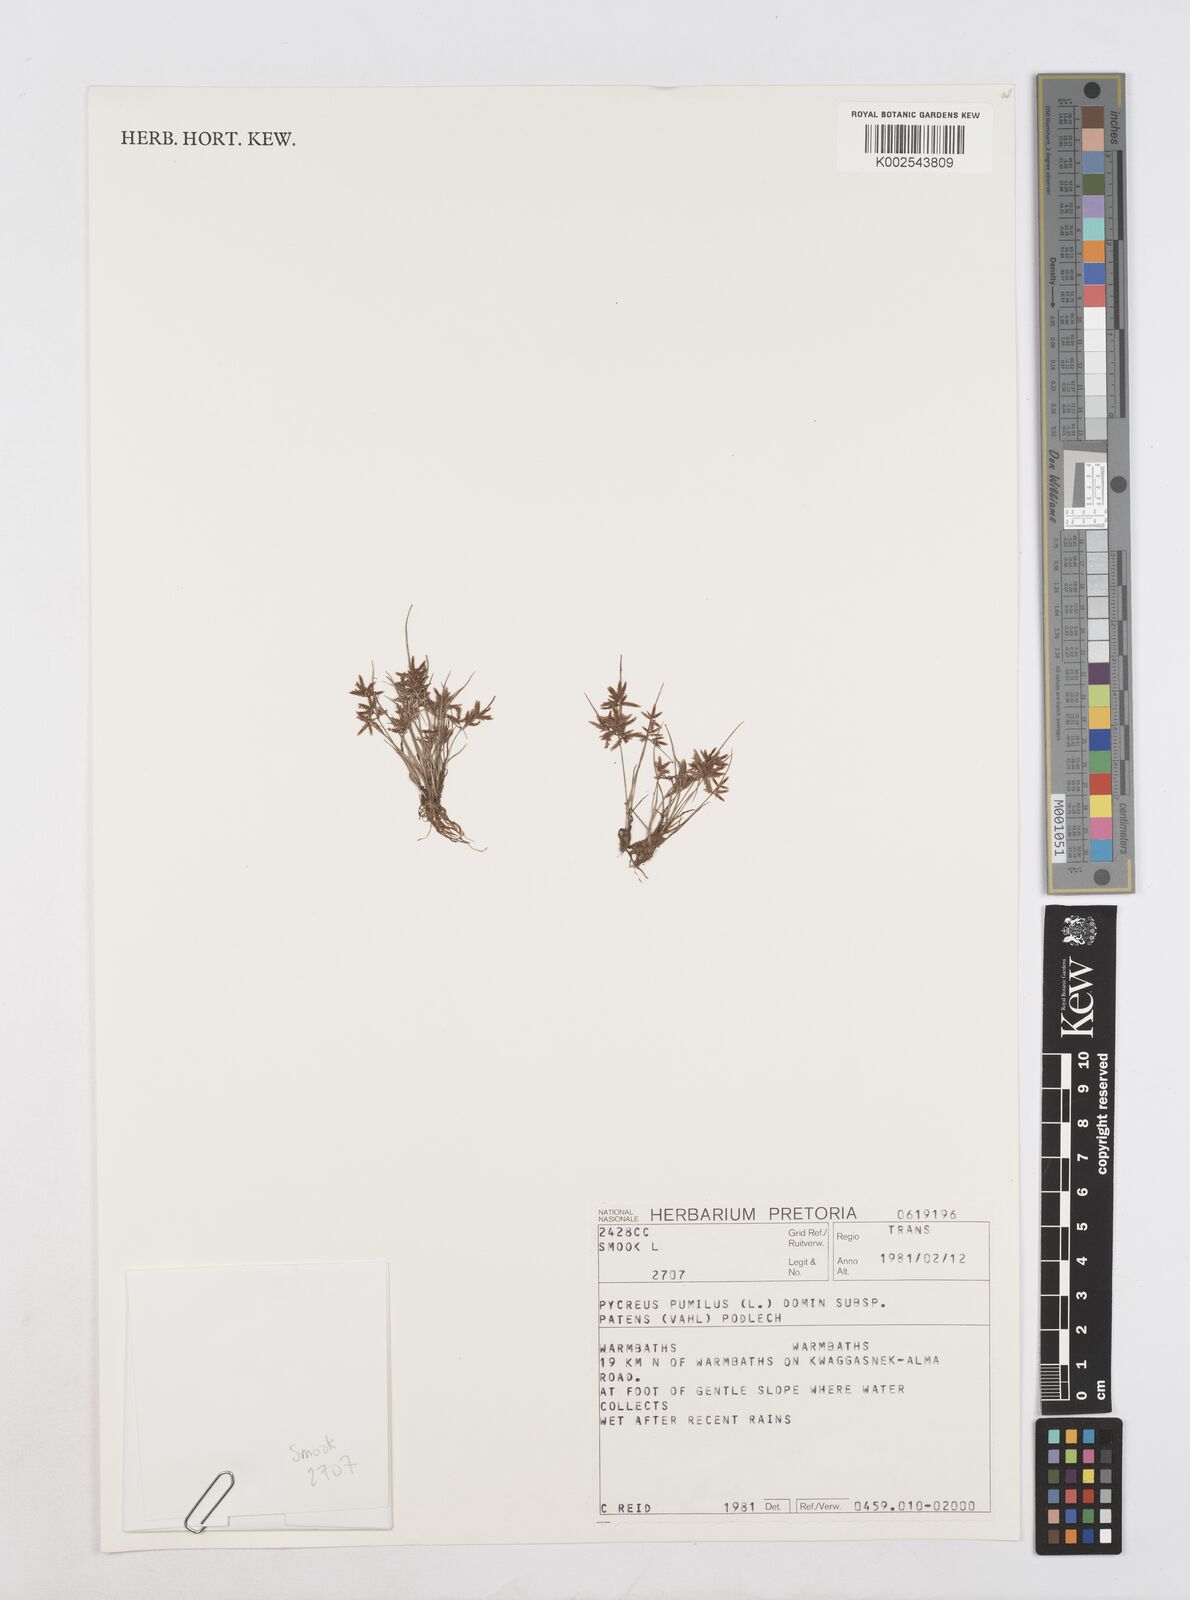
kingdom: Plantae
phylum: Tracheophyta
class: Liliopsida
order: Poales
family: Cyperaceae
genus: Cyperus
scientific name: Cyperus pumilus
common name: Low flatsedge
